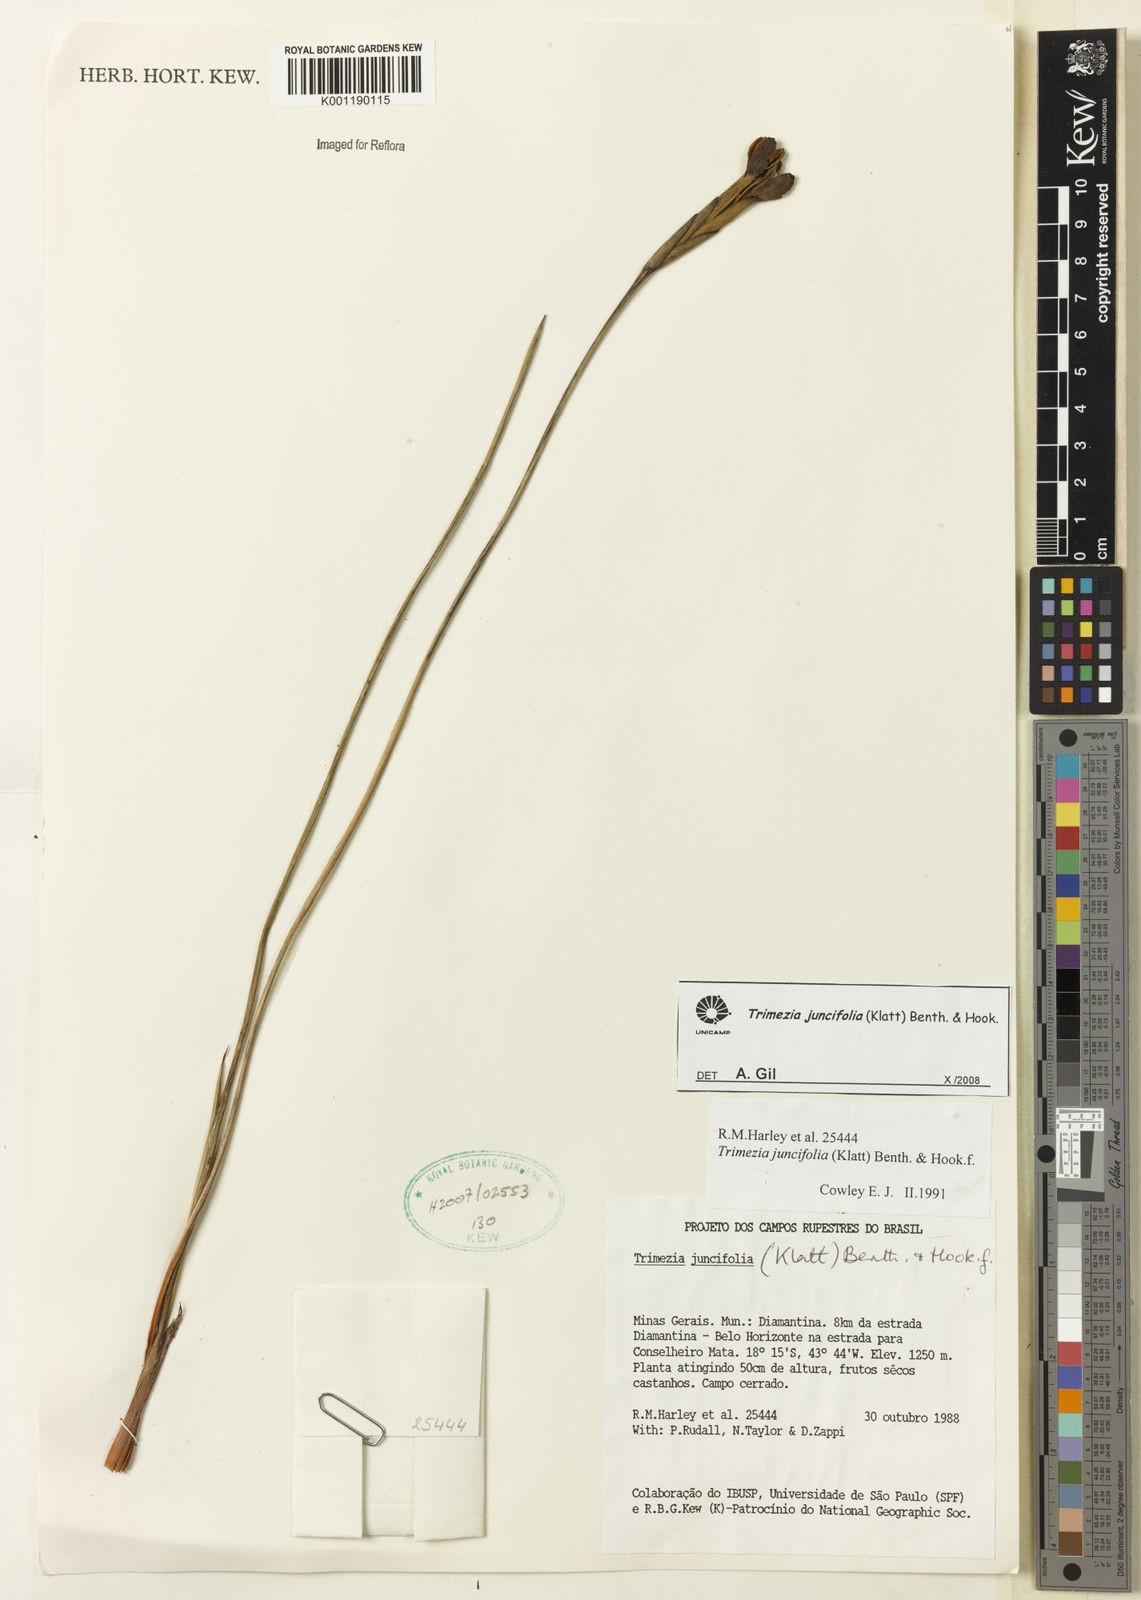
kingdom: Plantae
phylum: Tracheophyta
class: Liliopsida
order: Asparagales
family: Iridaceae
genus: Trimezia
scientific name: Trimezia juncifolia
